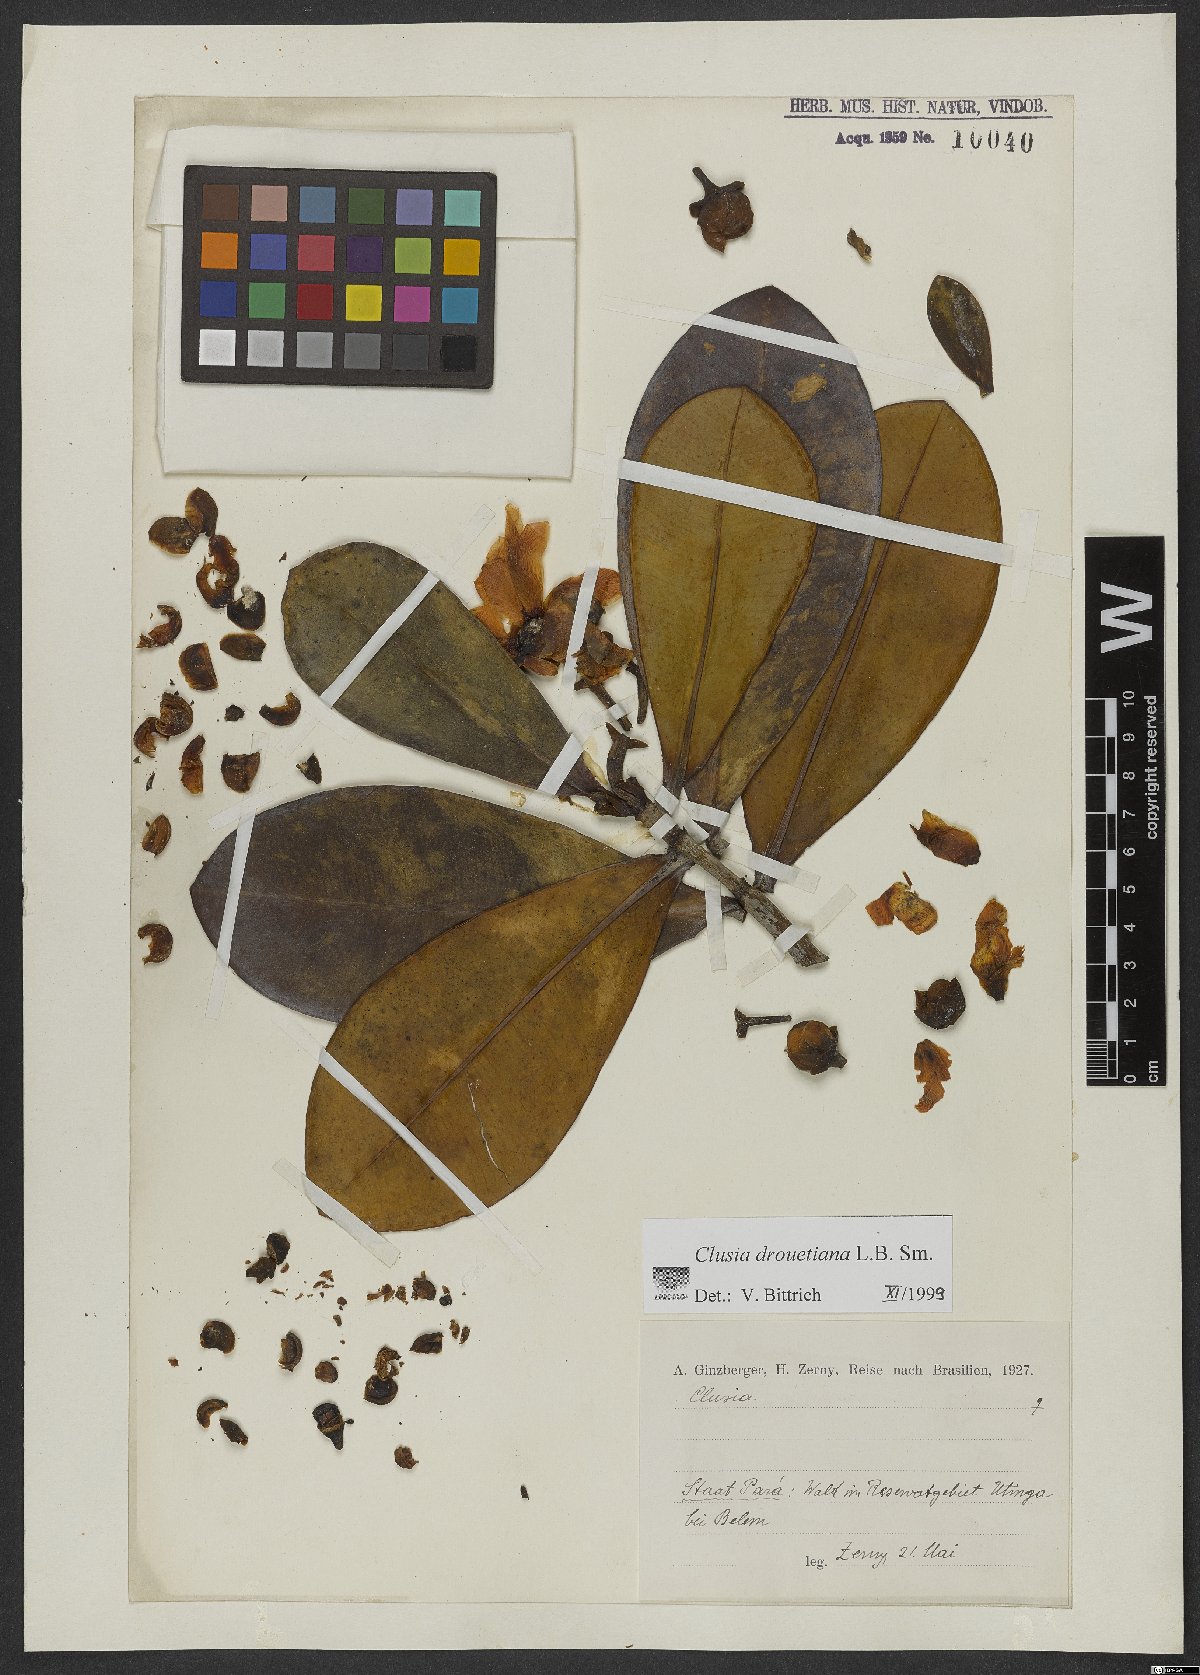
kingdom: Plantae
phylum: Tracheophyta
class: Magnoliopsida
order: Malpighiales
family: Clusiaceae
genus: Clusia
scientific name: Clusia drouetiana
